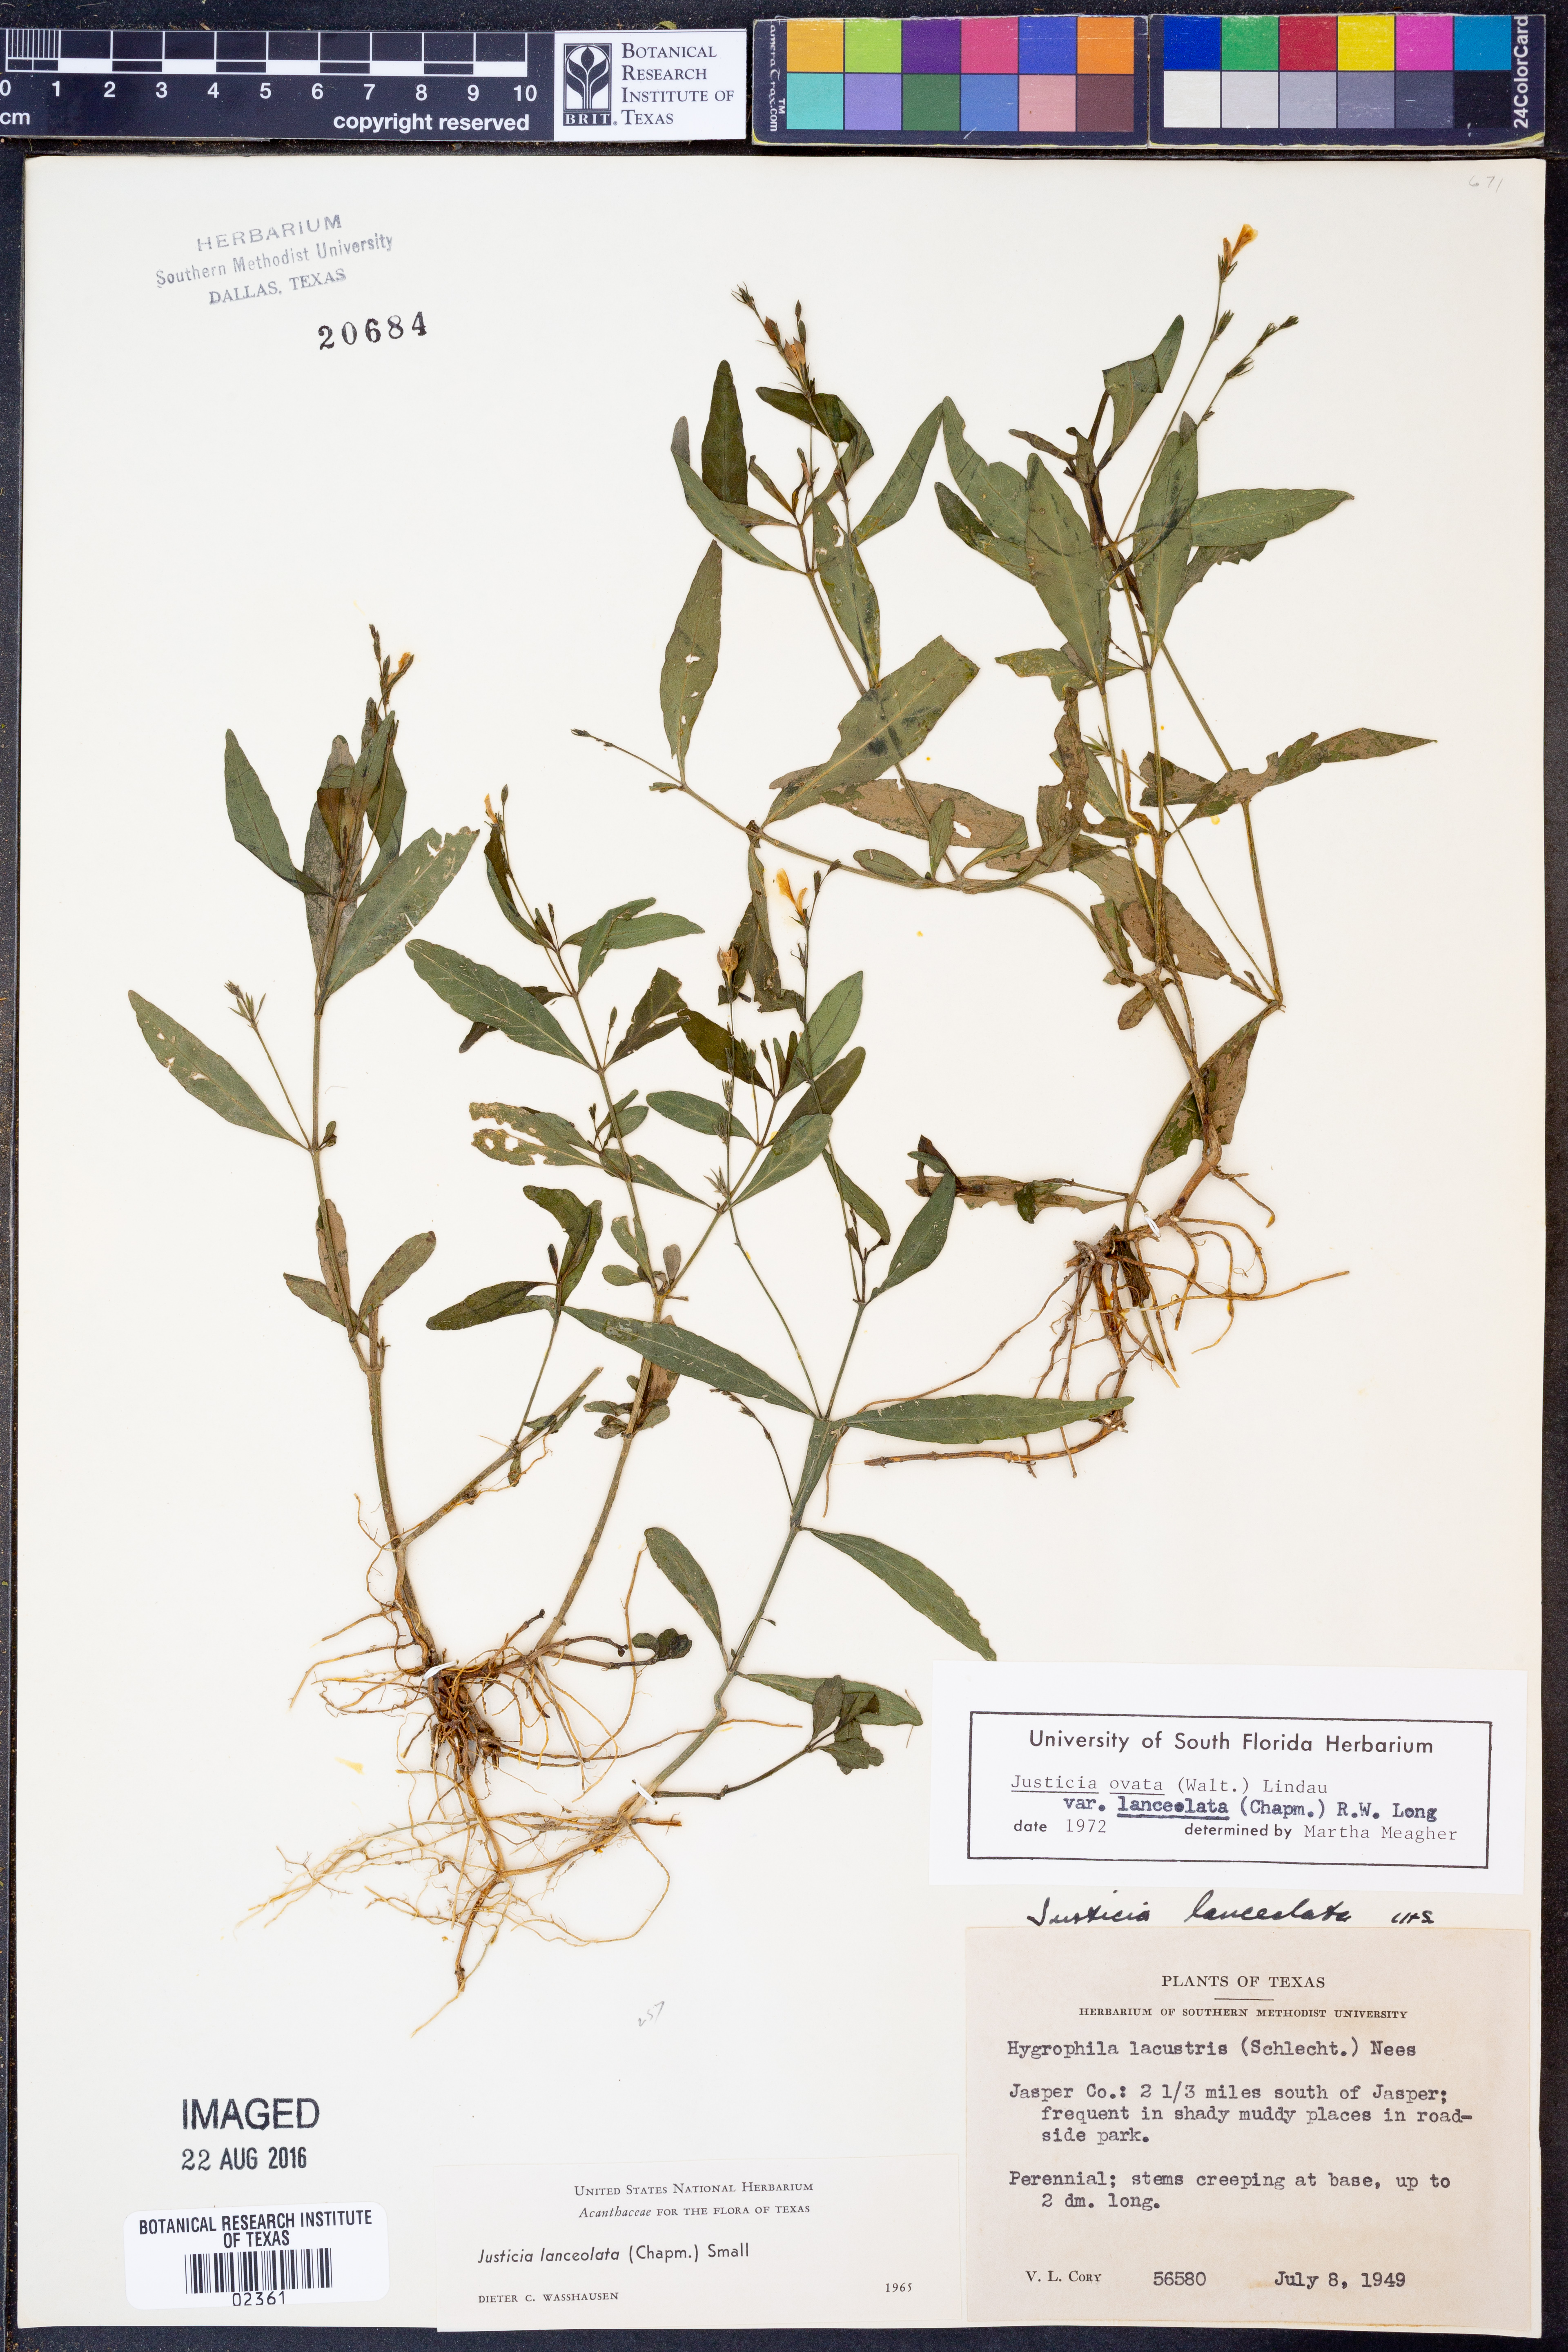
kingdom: Plantae
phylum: Tracheophyta
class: Magnoliopsida
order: Lamiales
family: Acanthaceae
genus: Justicia
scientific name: Justicia lanceolata
